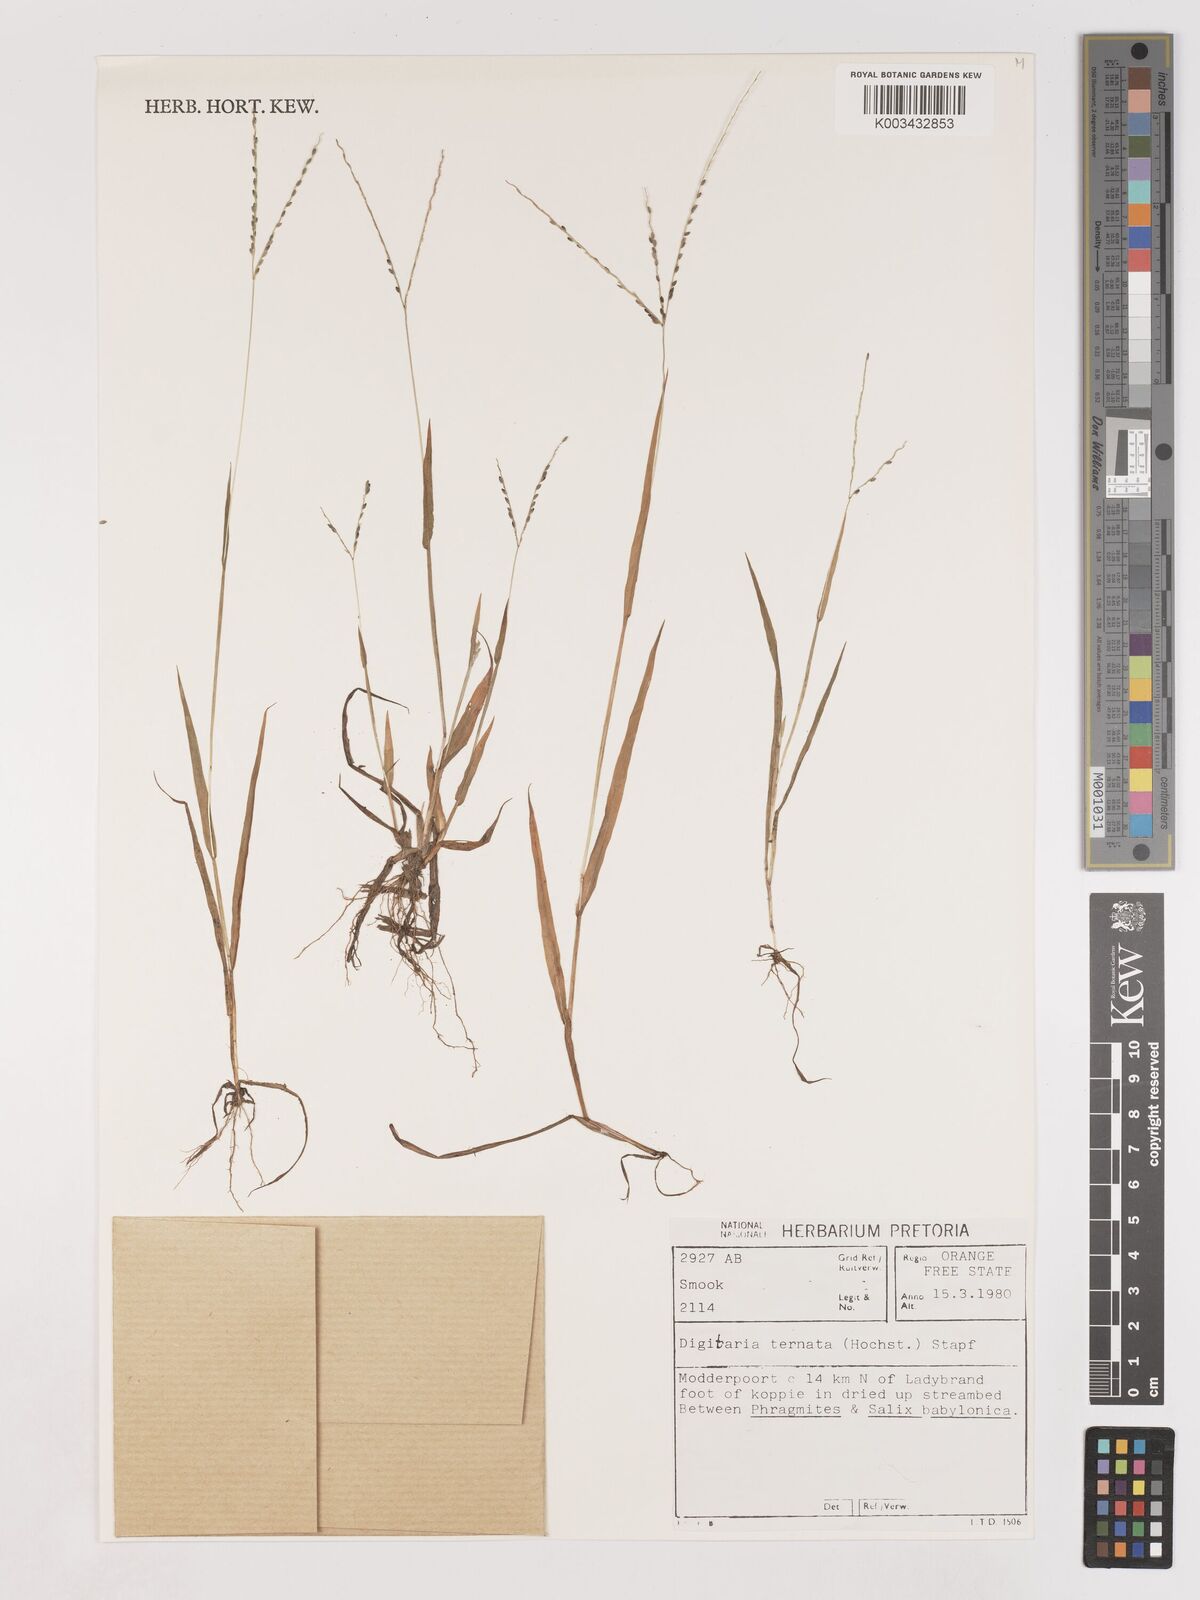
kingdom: Plantae
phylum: Tracheophyta
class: Liliopsida
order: Poales
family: Poaceae
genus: Digitaria
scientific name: Digitaria ternata
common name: Blackseed crabgrass
